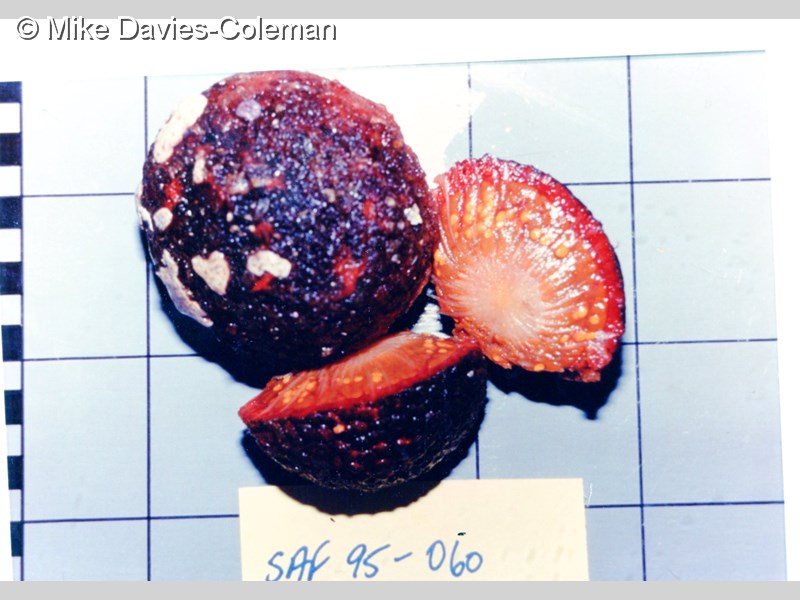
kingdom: Animalia
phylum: Porifera
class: Demospongiae
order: Tethyida
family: Tethyidae
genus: Tethya
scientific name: Tethya
